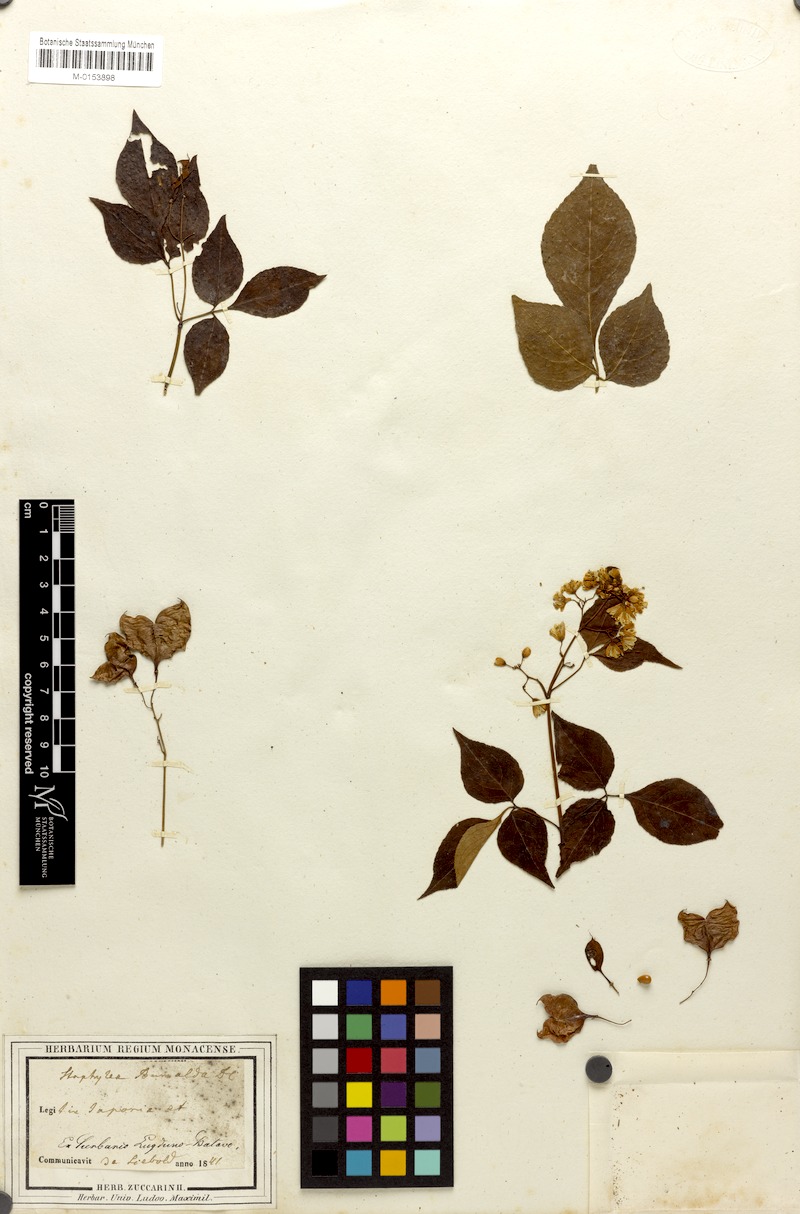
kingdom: Plantae
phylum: Tracheophyta
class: Magnoliopsida
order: Crossosomatales
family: Staphyleaceae
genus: Staphylea
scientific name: Staphylea bumalda
